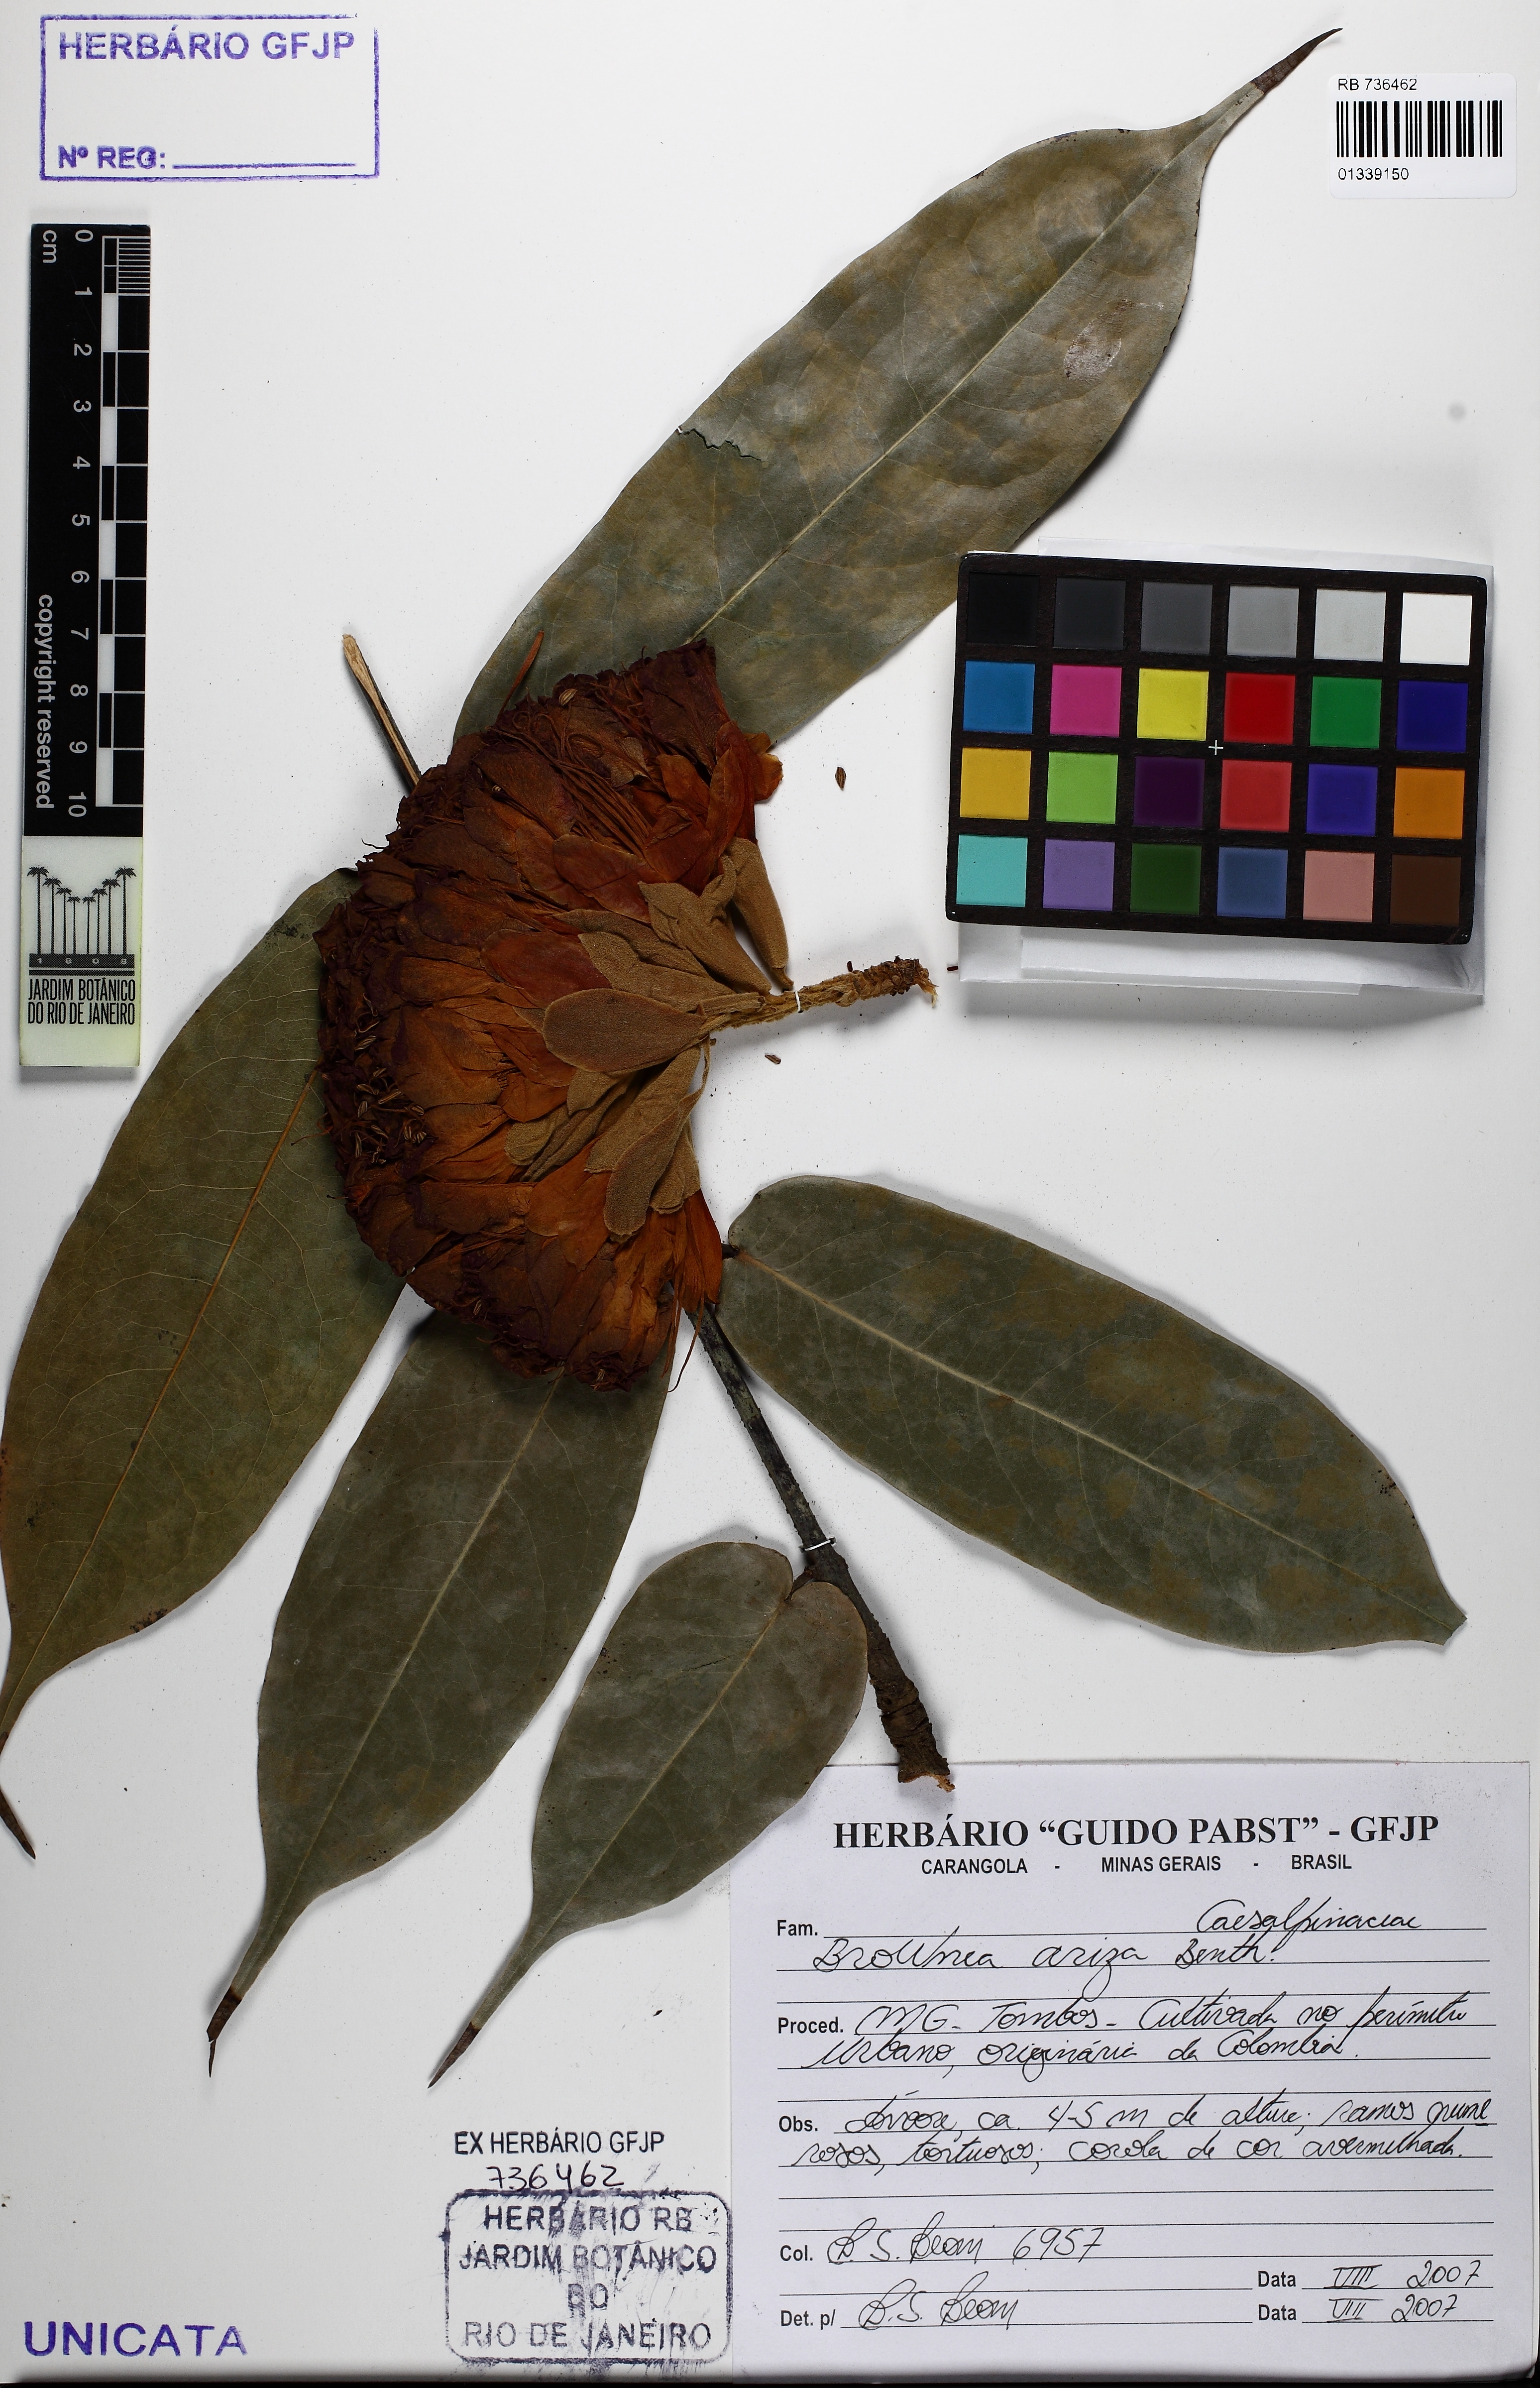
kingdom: Plantae
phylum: Tracheophyta
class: Magnoliopsida
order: Fabales
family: Fabaceae
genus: Brownea
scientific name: Brownea grandiceps
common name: Rose-of-venezuela
